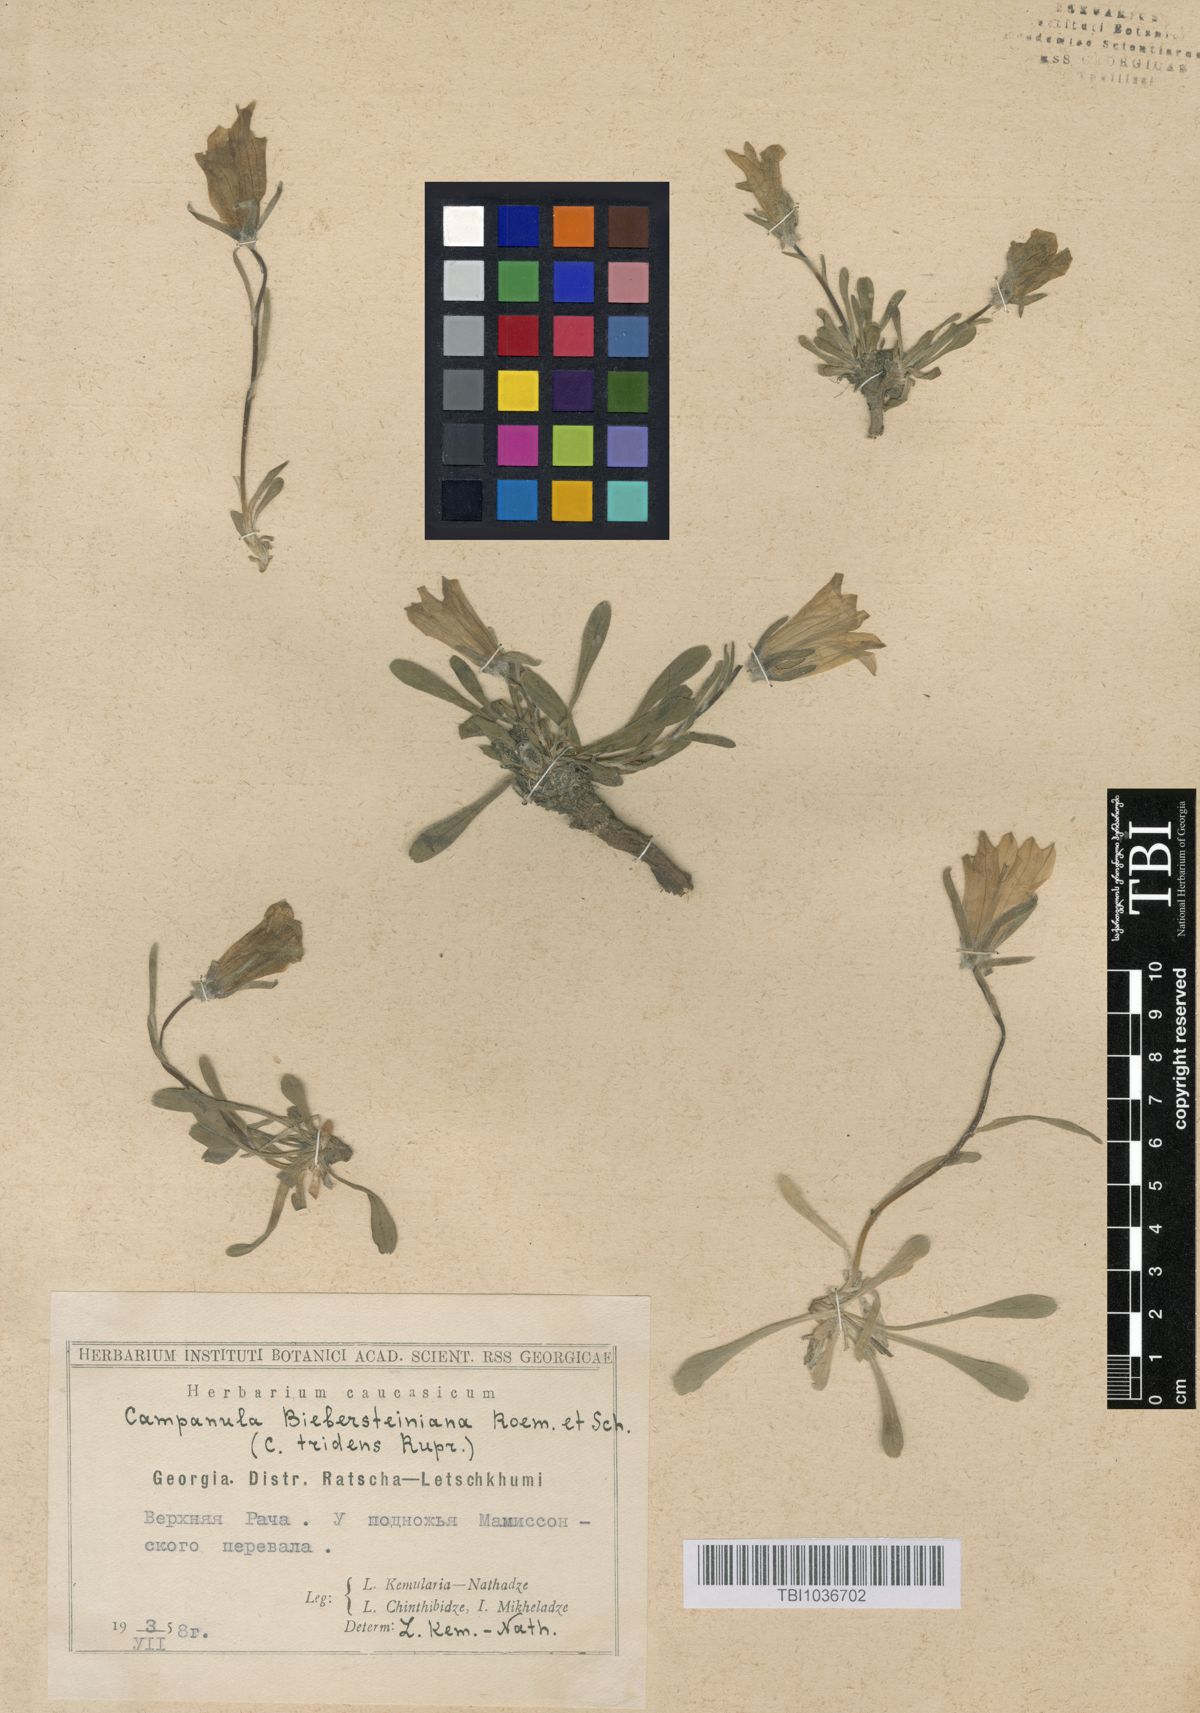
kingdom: Plantae
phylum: Tracheophyta
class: Magnoliopsida
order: Asterales
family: Campanulaceae
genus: Campanula
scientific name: Campanula tridentata
